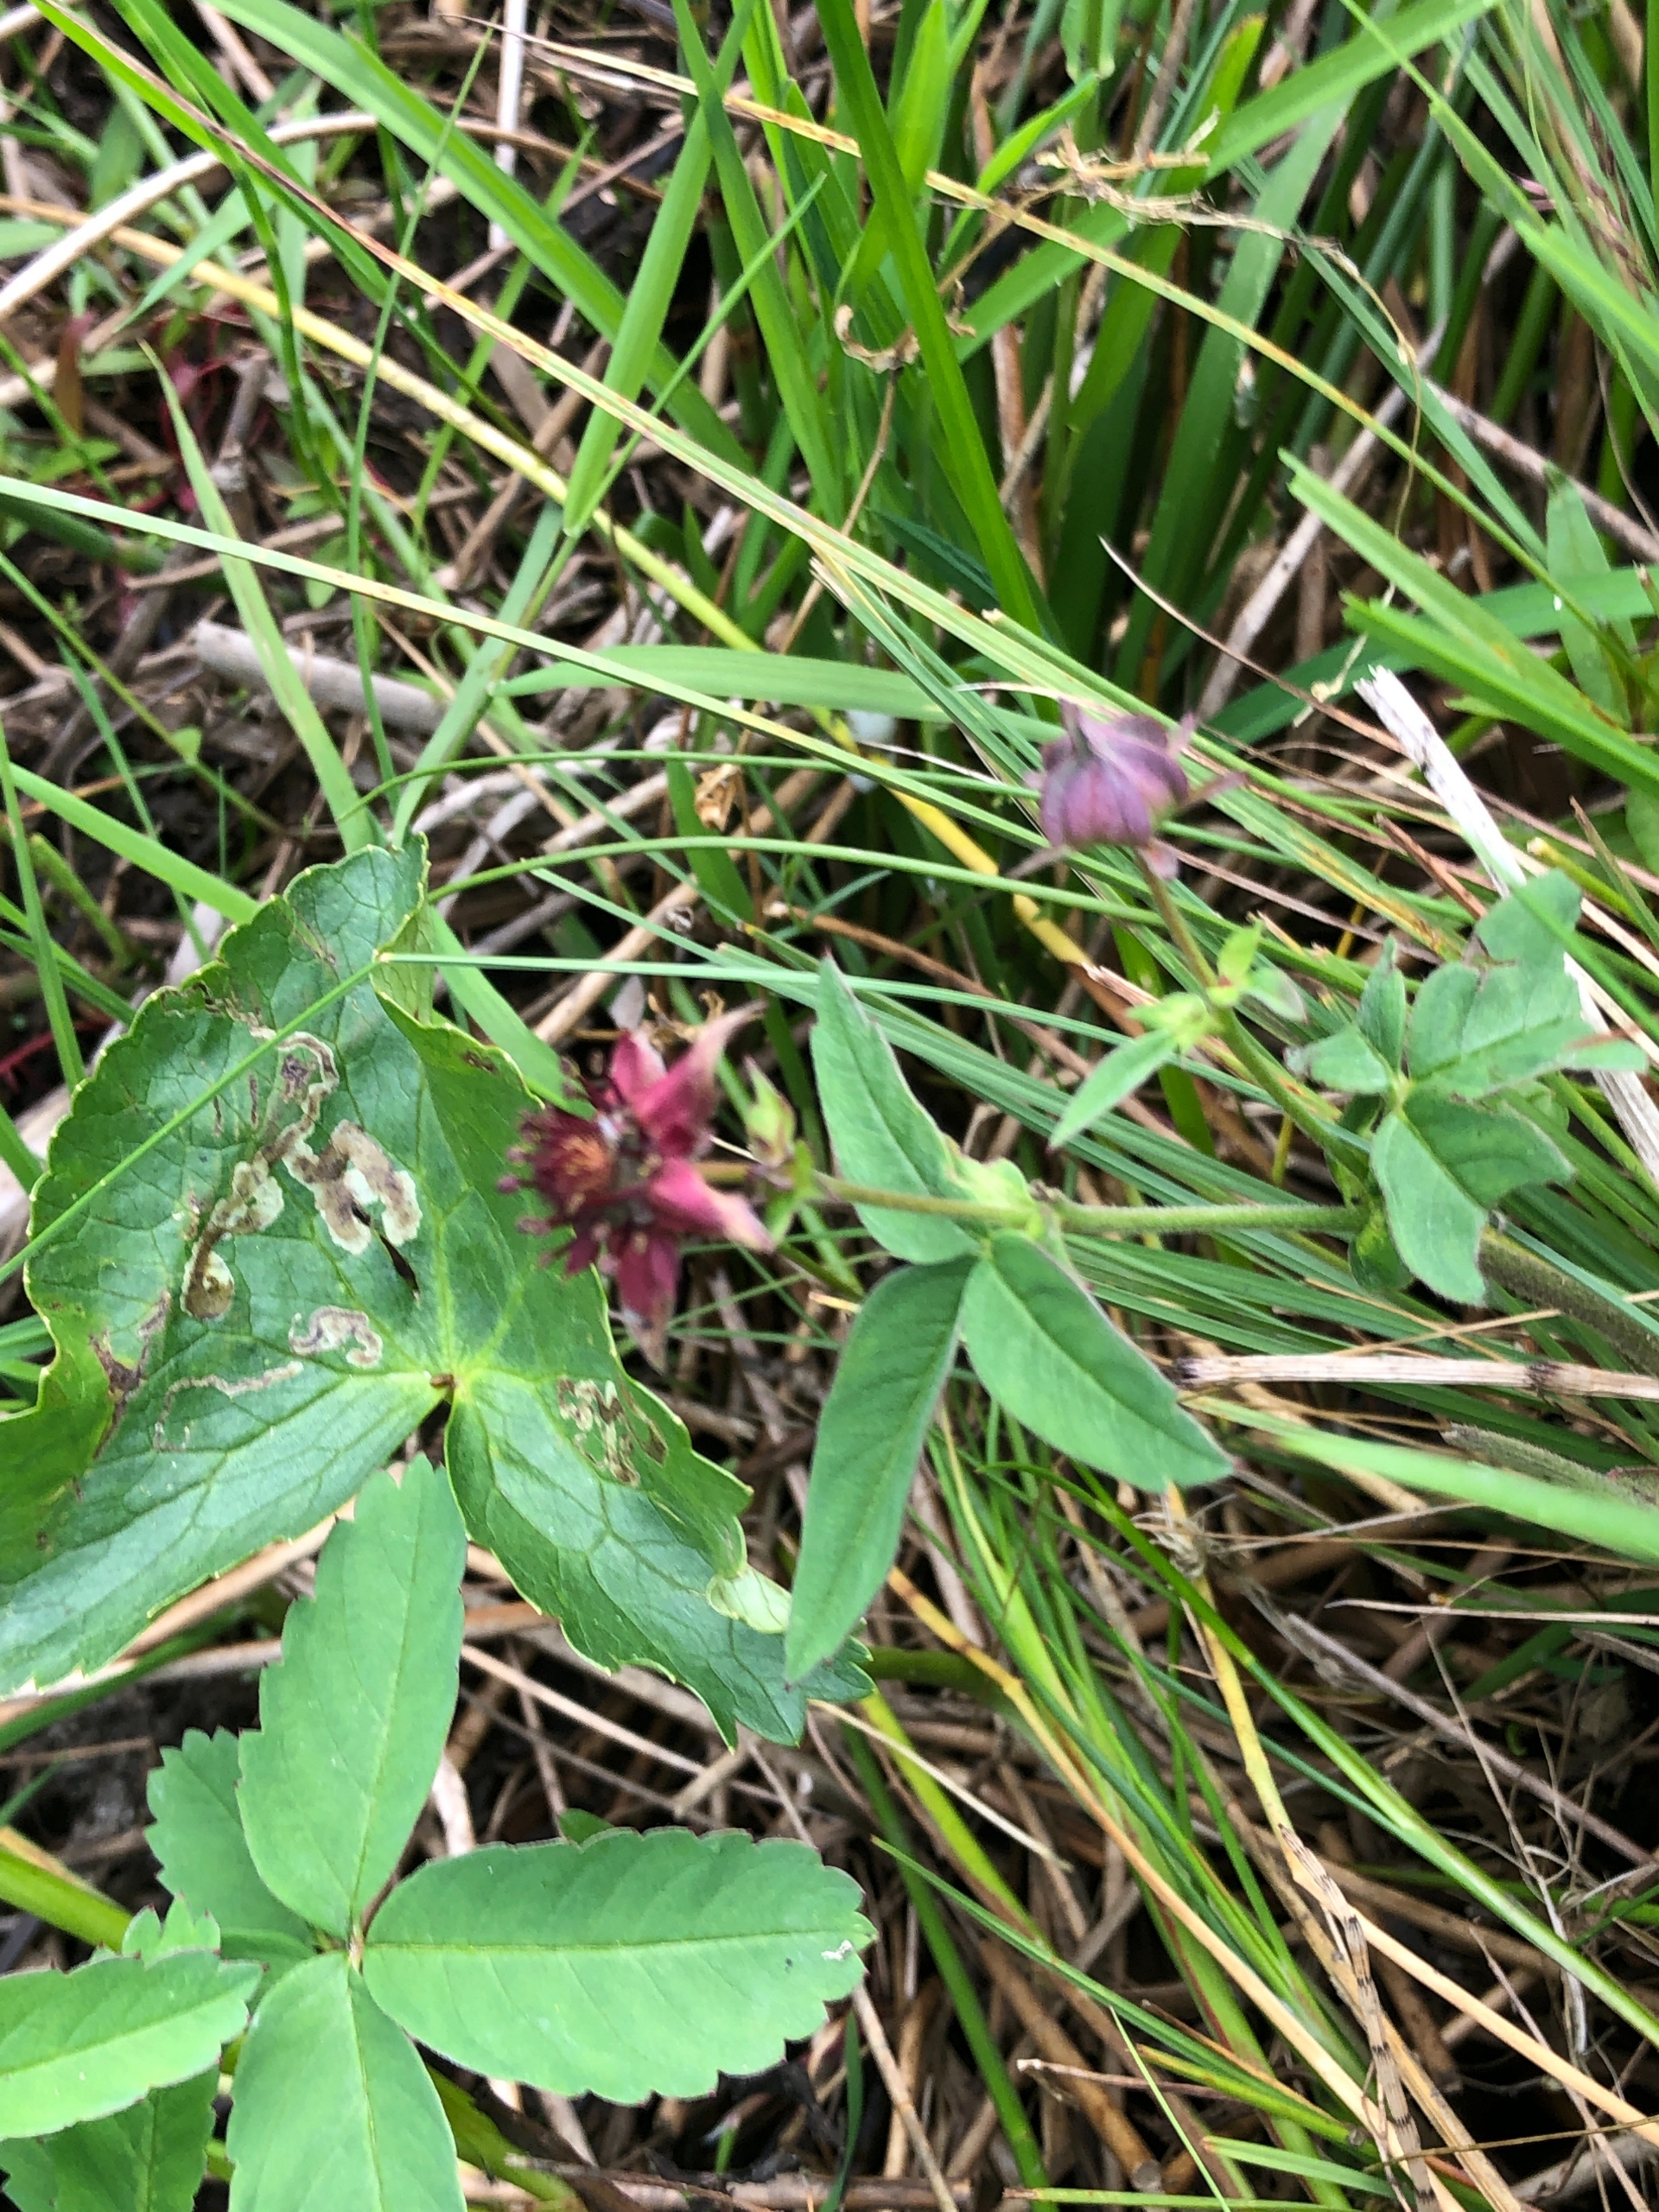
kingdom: Plantae
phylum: Tracheophyta
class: Magnoliopsida
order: Rosales
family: Rosaceae
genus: Comarum
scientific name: Comarum palustre
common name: Kragefod
